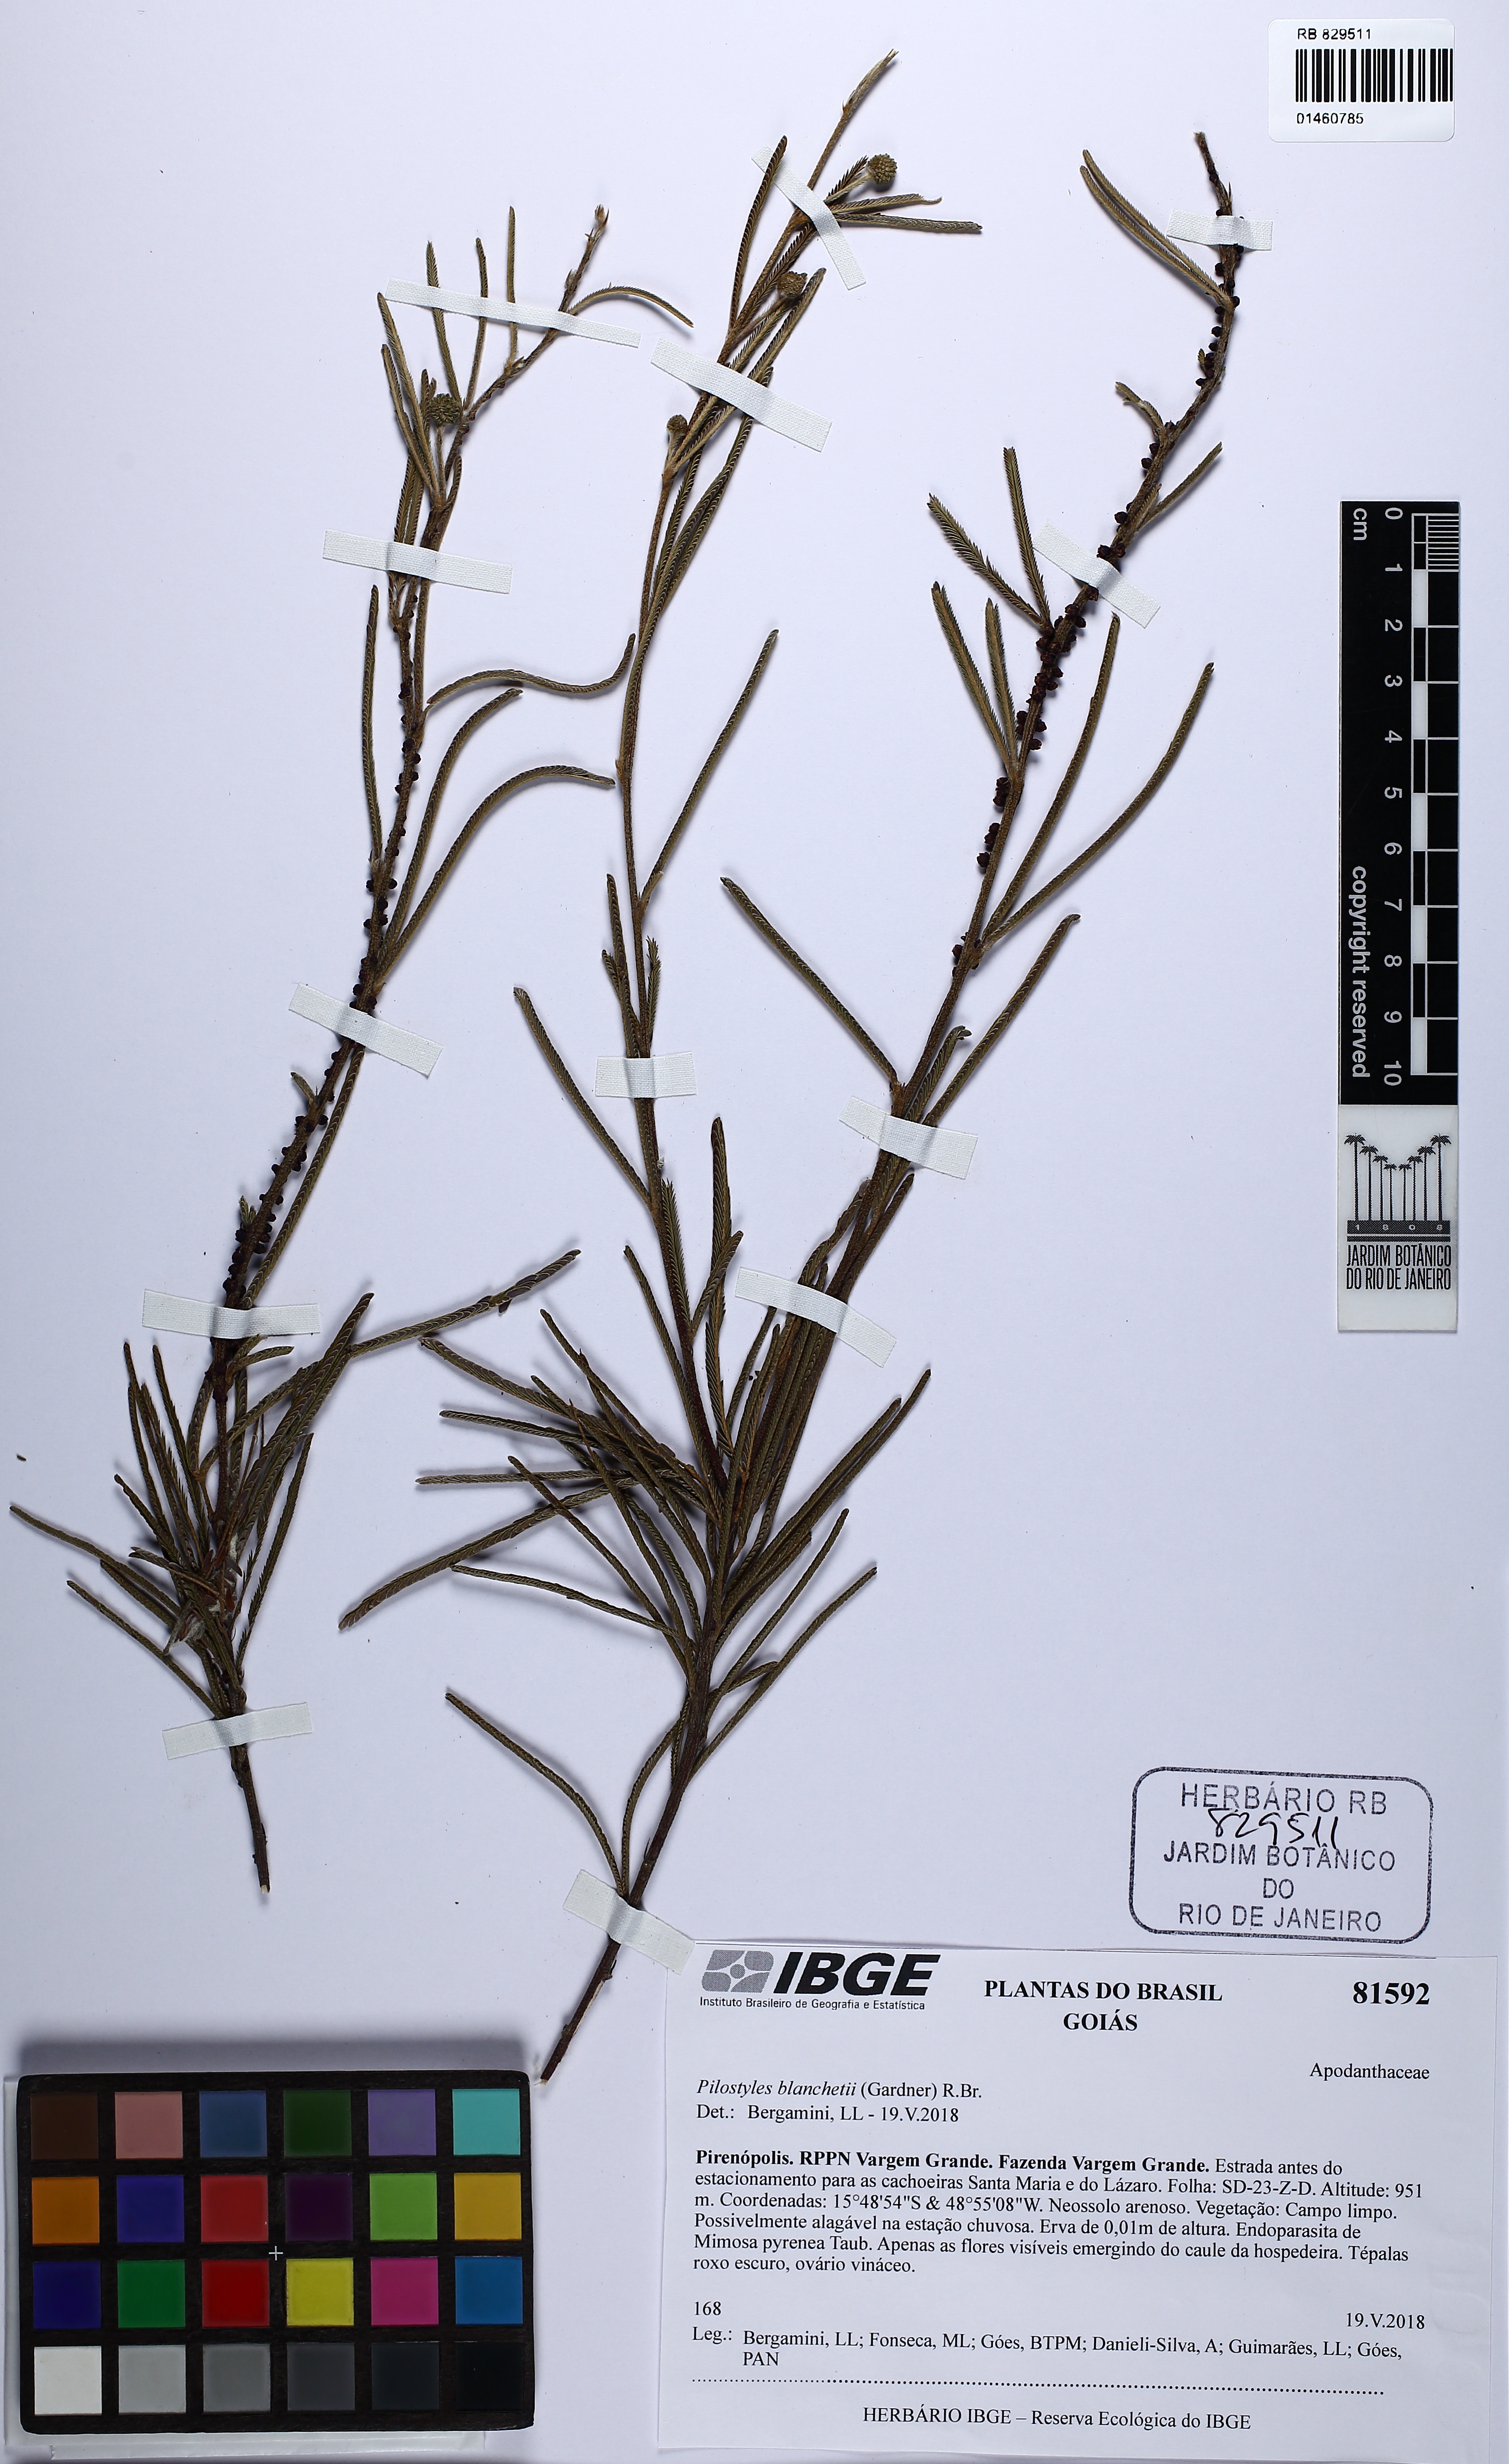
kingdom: Plantae
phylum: Tracheophyta
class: Magnoliopsida
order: Cucurbitales
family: Apodanthaceae
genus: Pilostyles
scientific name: Pilostyles blanchetii
